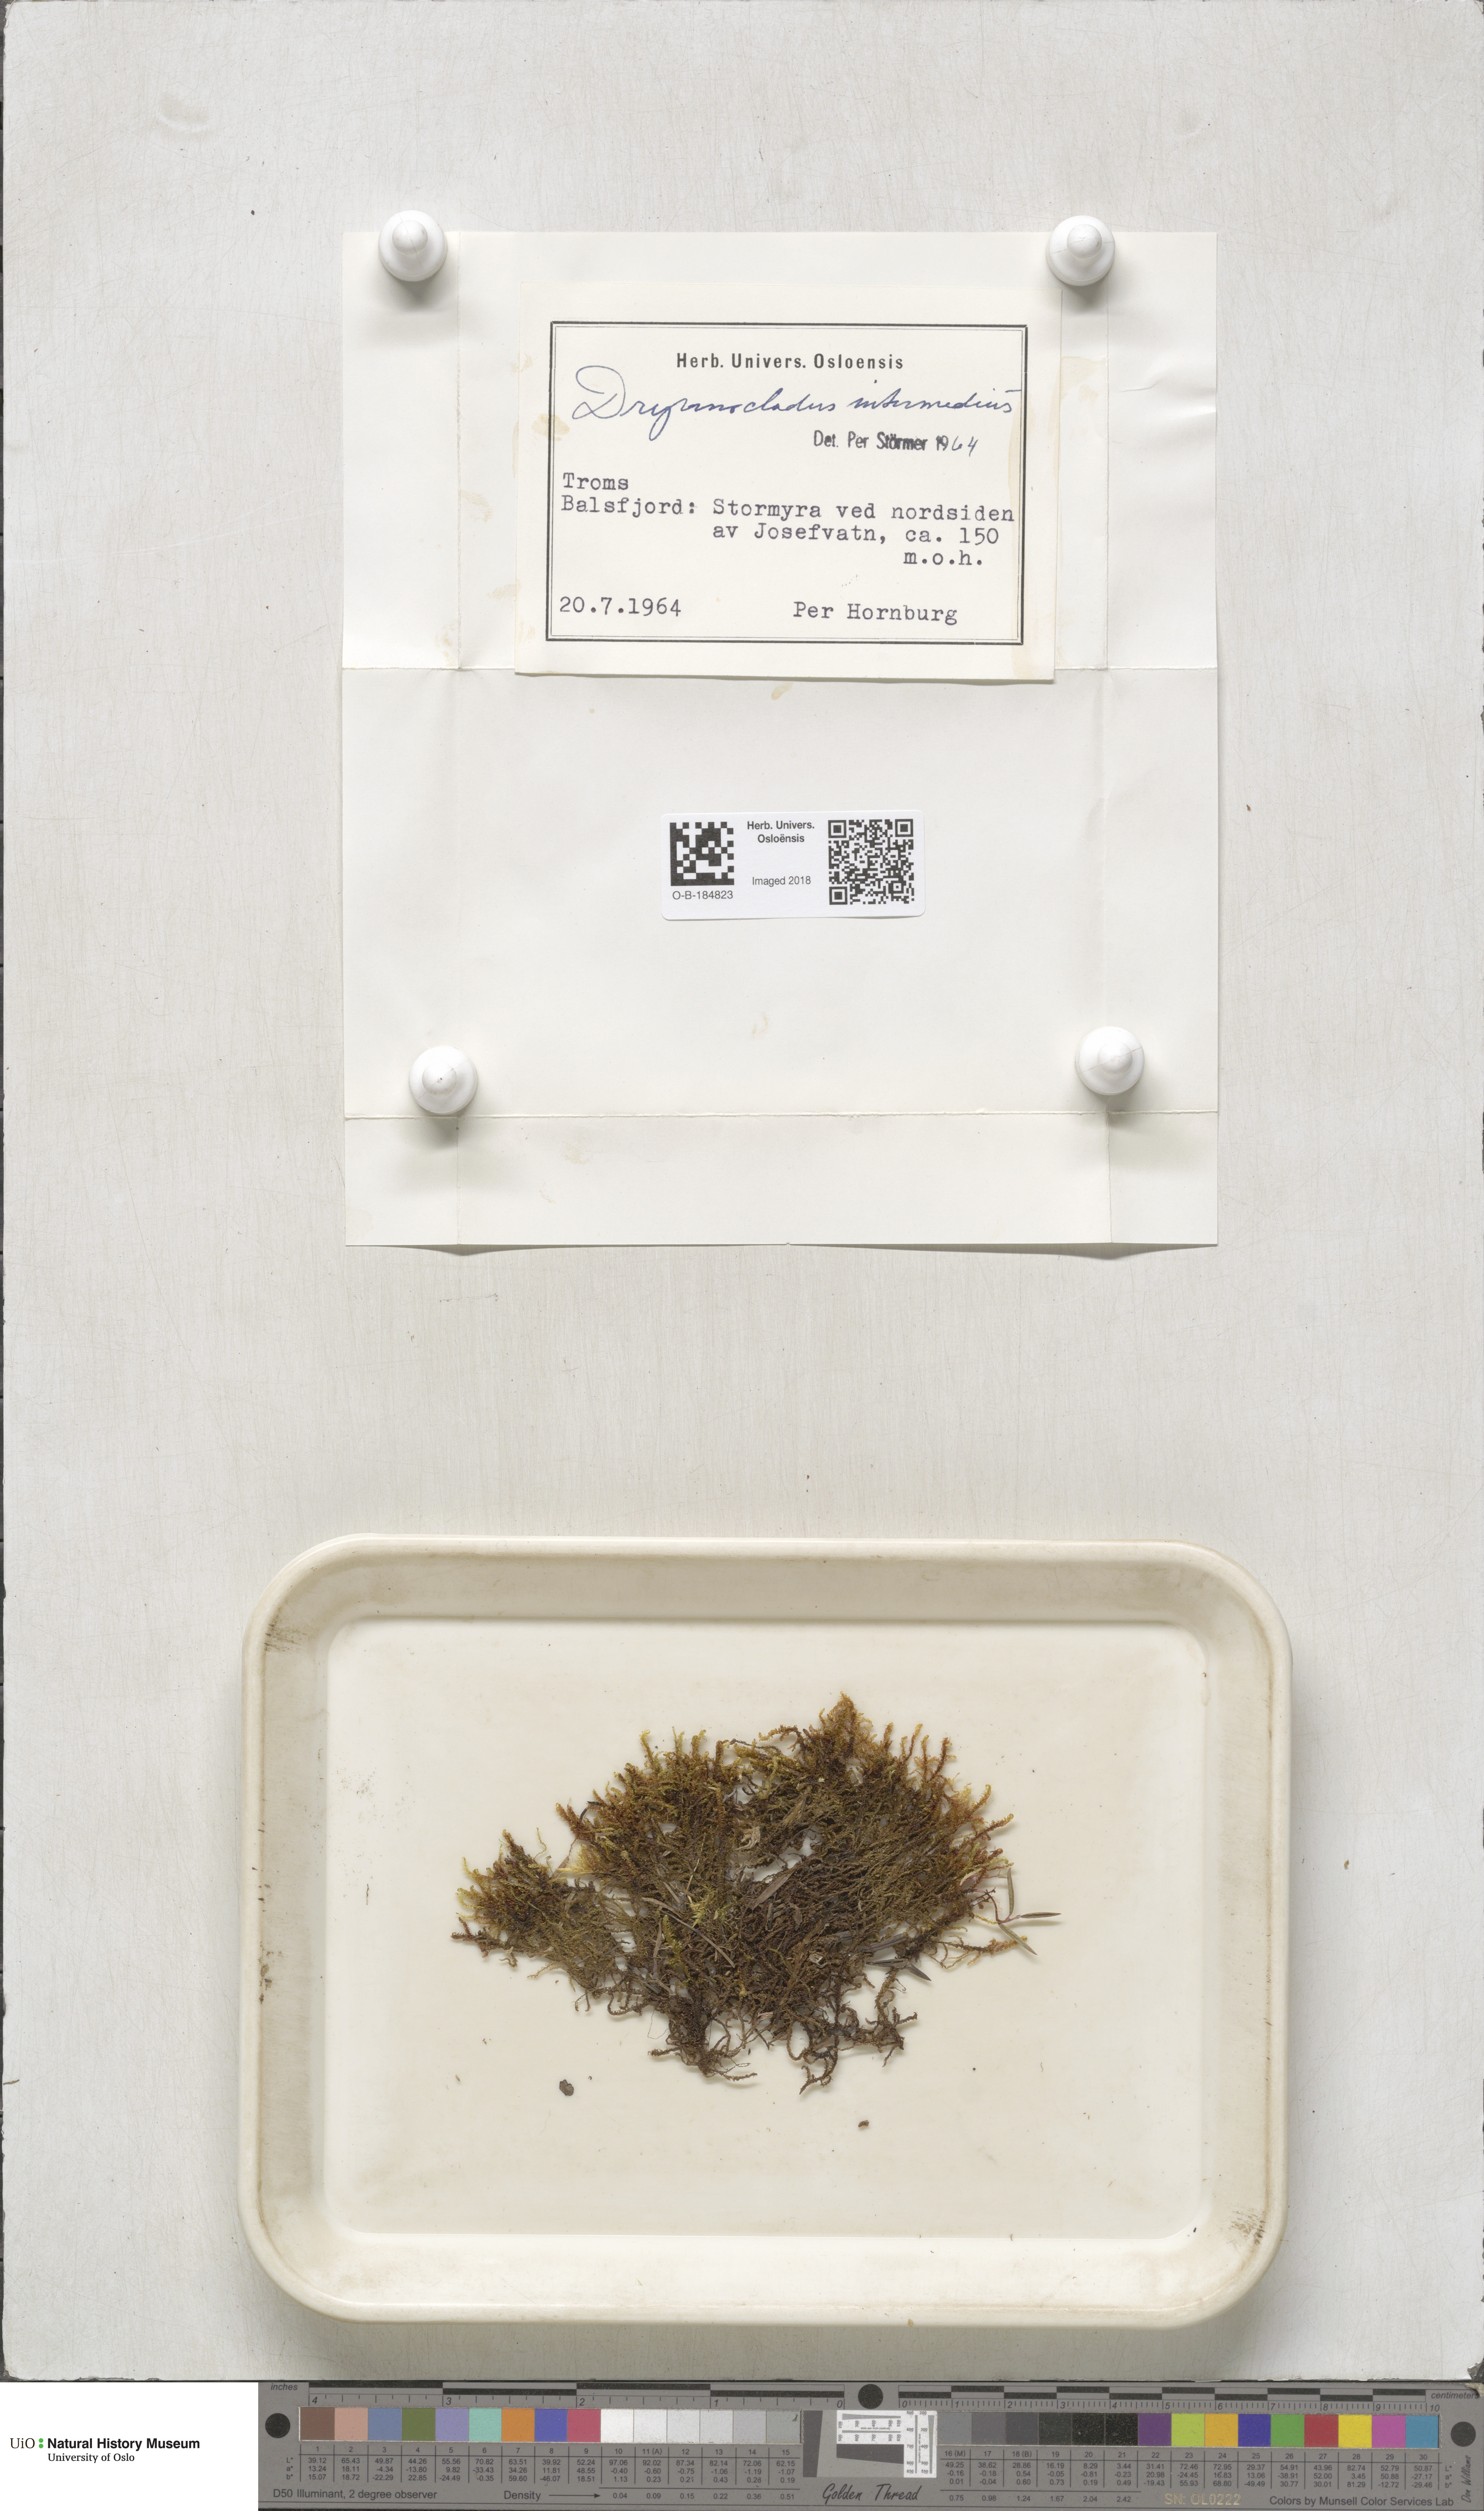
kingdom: Plantae
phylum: Bryophyta
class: Bryopsida
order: Hypnales
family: Scorpidiaceae
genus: Scorpidium
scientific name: Scorpidium cossonii
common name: Cosson's hook moss
